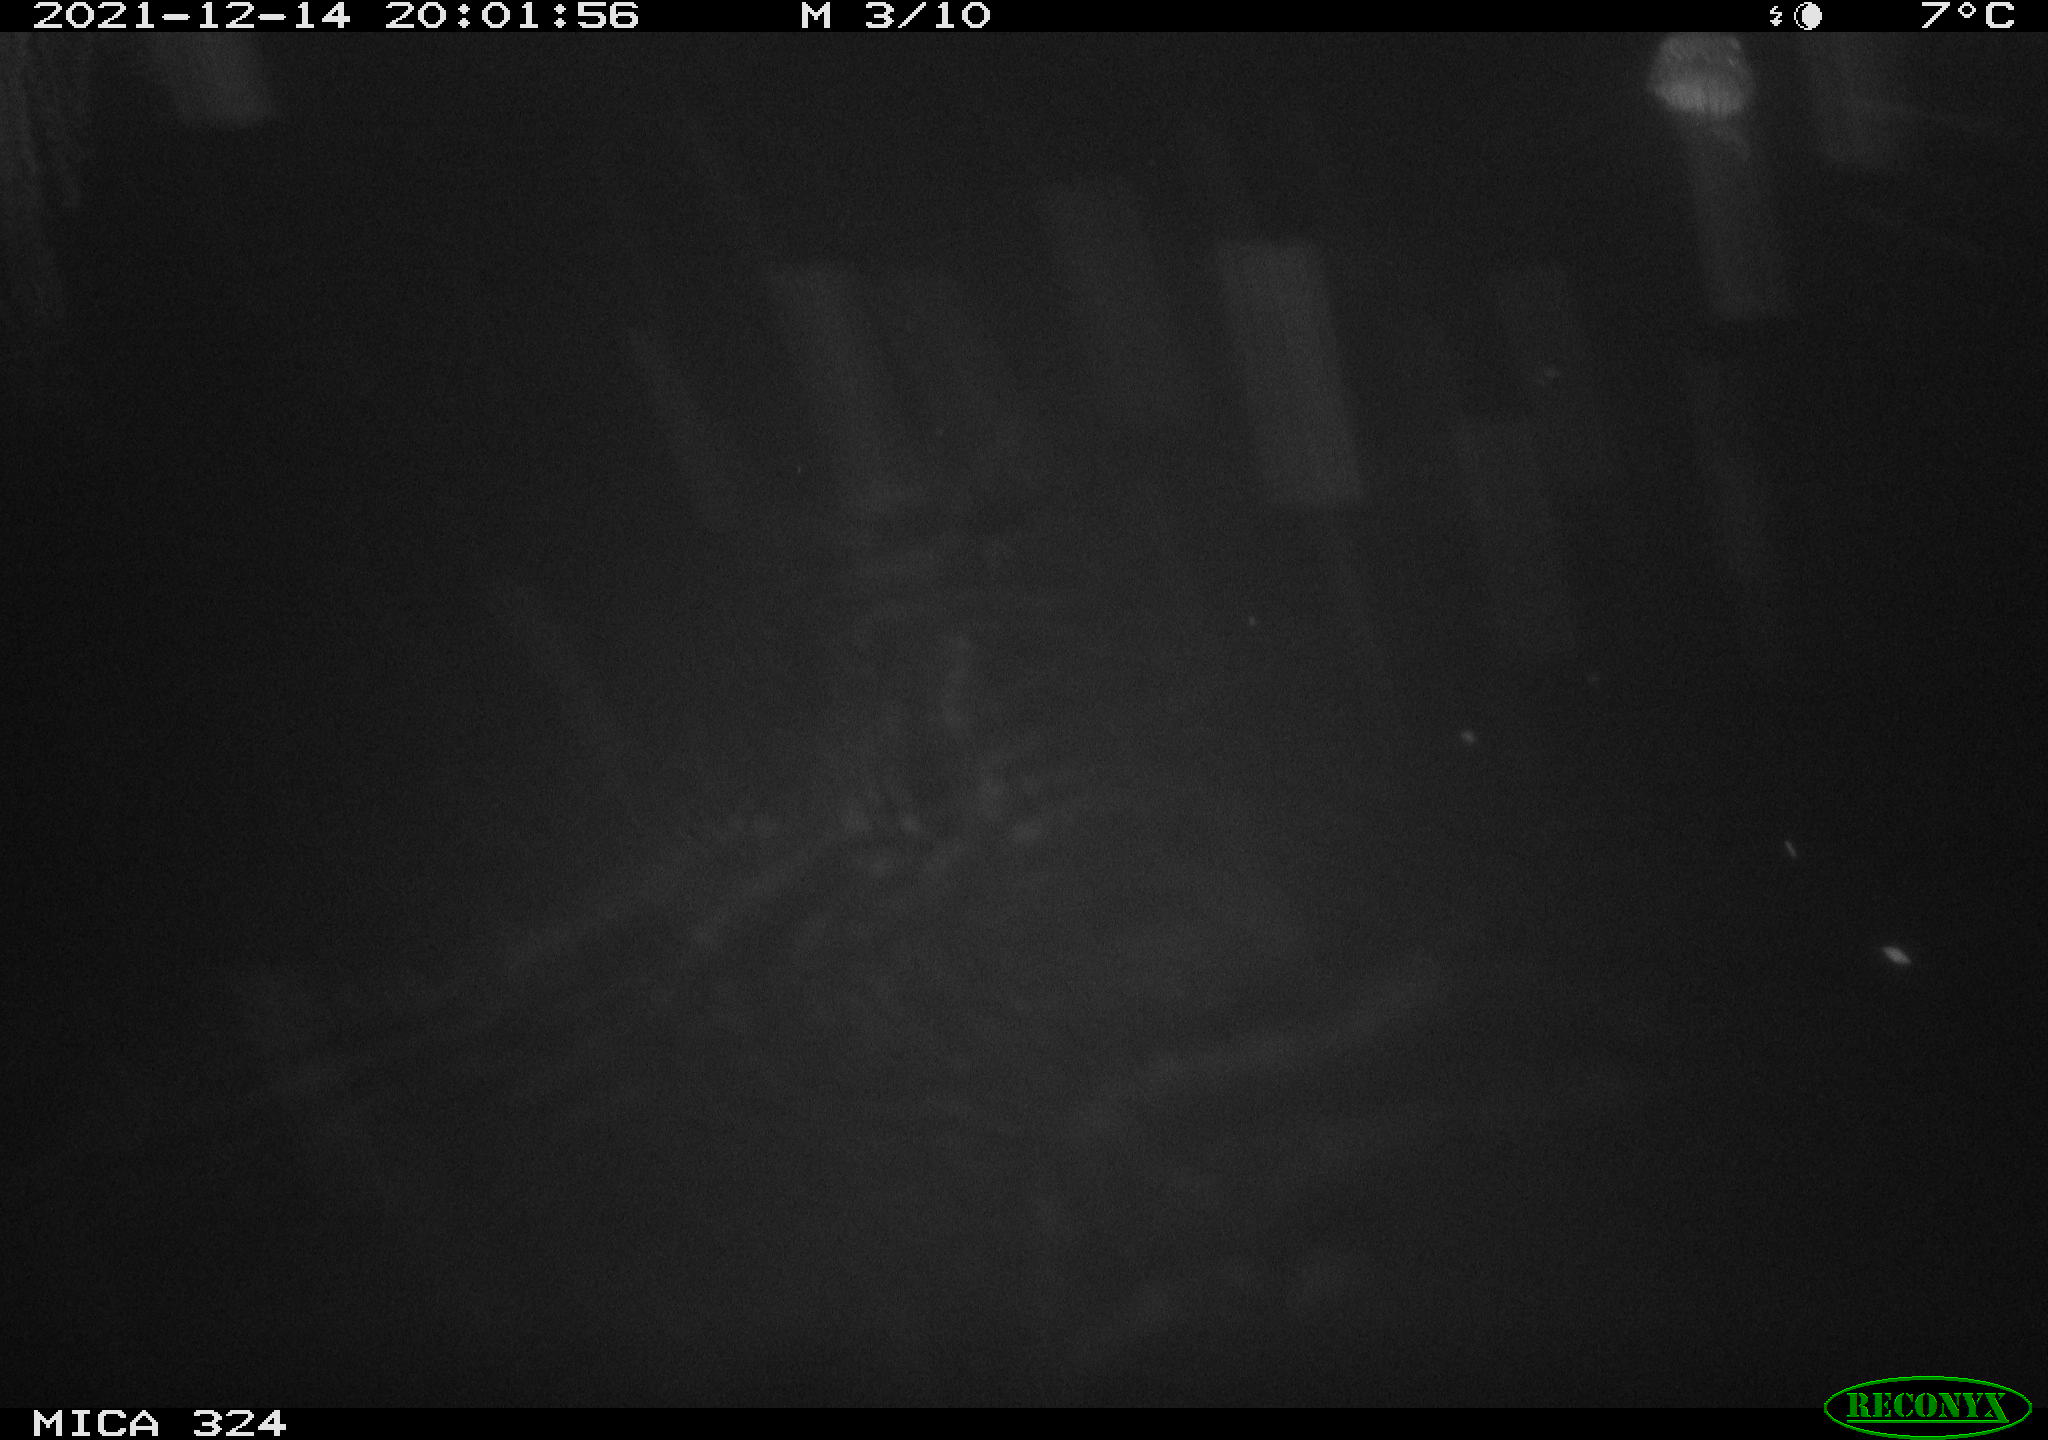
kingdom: Animalia
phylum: Chordata
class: Mammalia
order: Rodentia
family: Cricetidae
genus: Ondatra
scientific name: Ondatra zibethicus
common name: Muskrat
